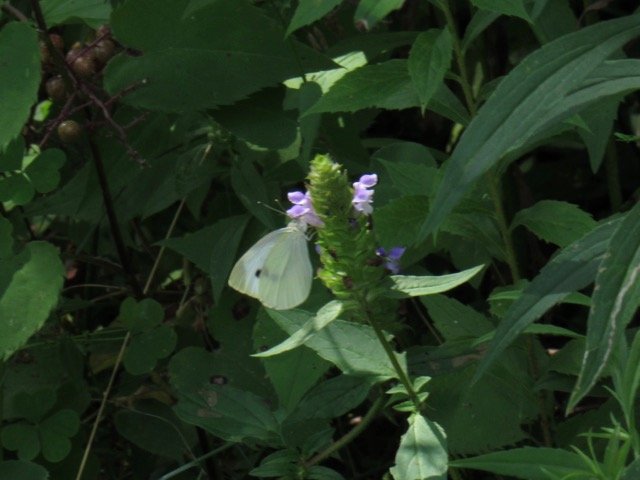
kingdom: Animalia
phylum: Arthropoda
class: Insecta
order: Lepidoptera
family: Pieridae
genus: Pieris
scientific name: Pieris rapae
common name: Cabbage White
